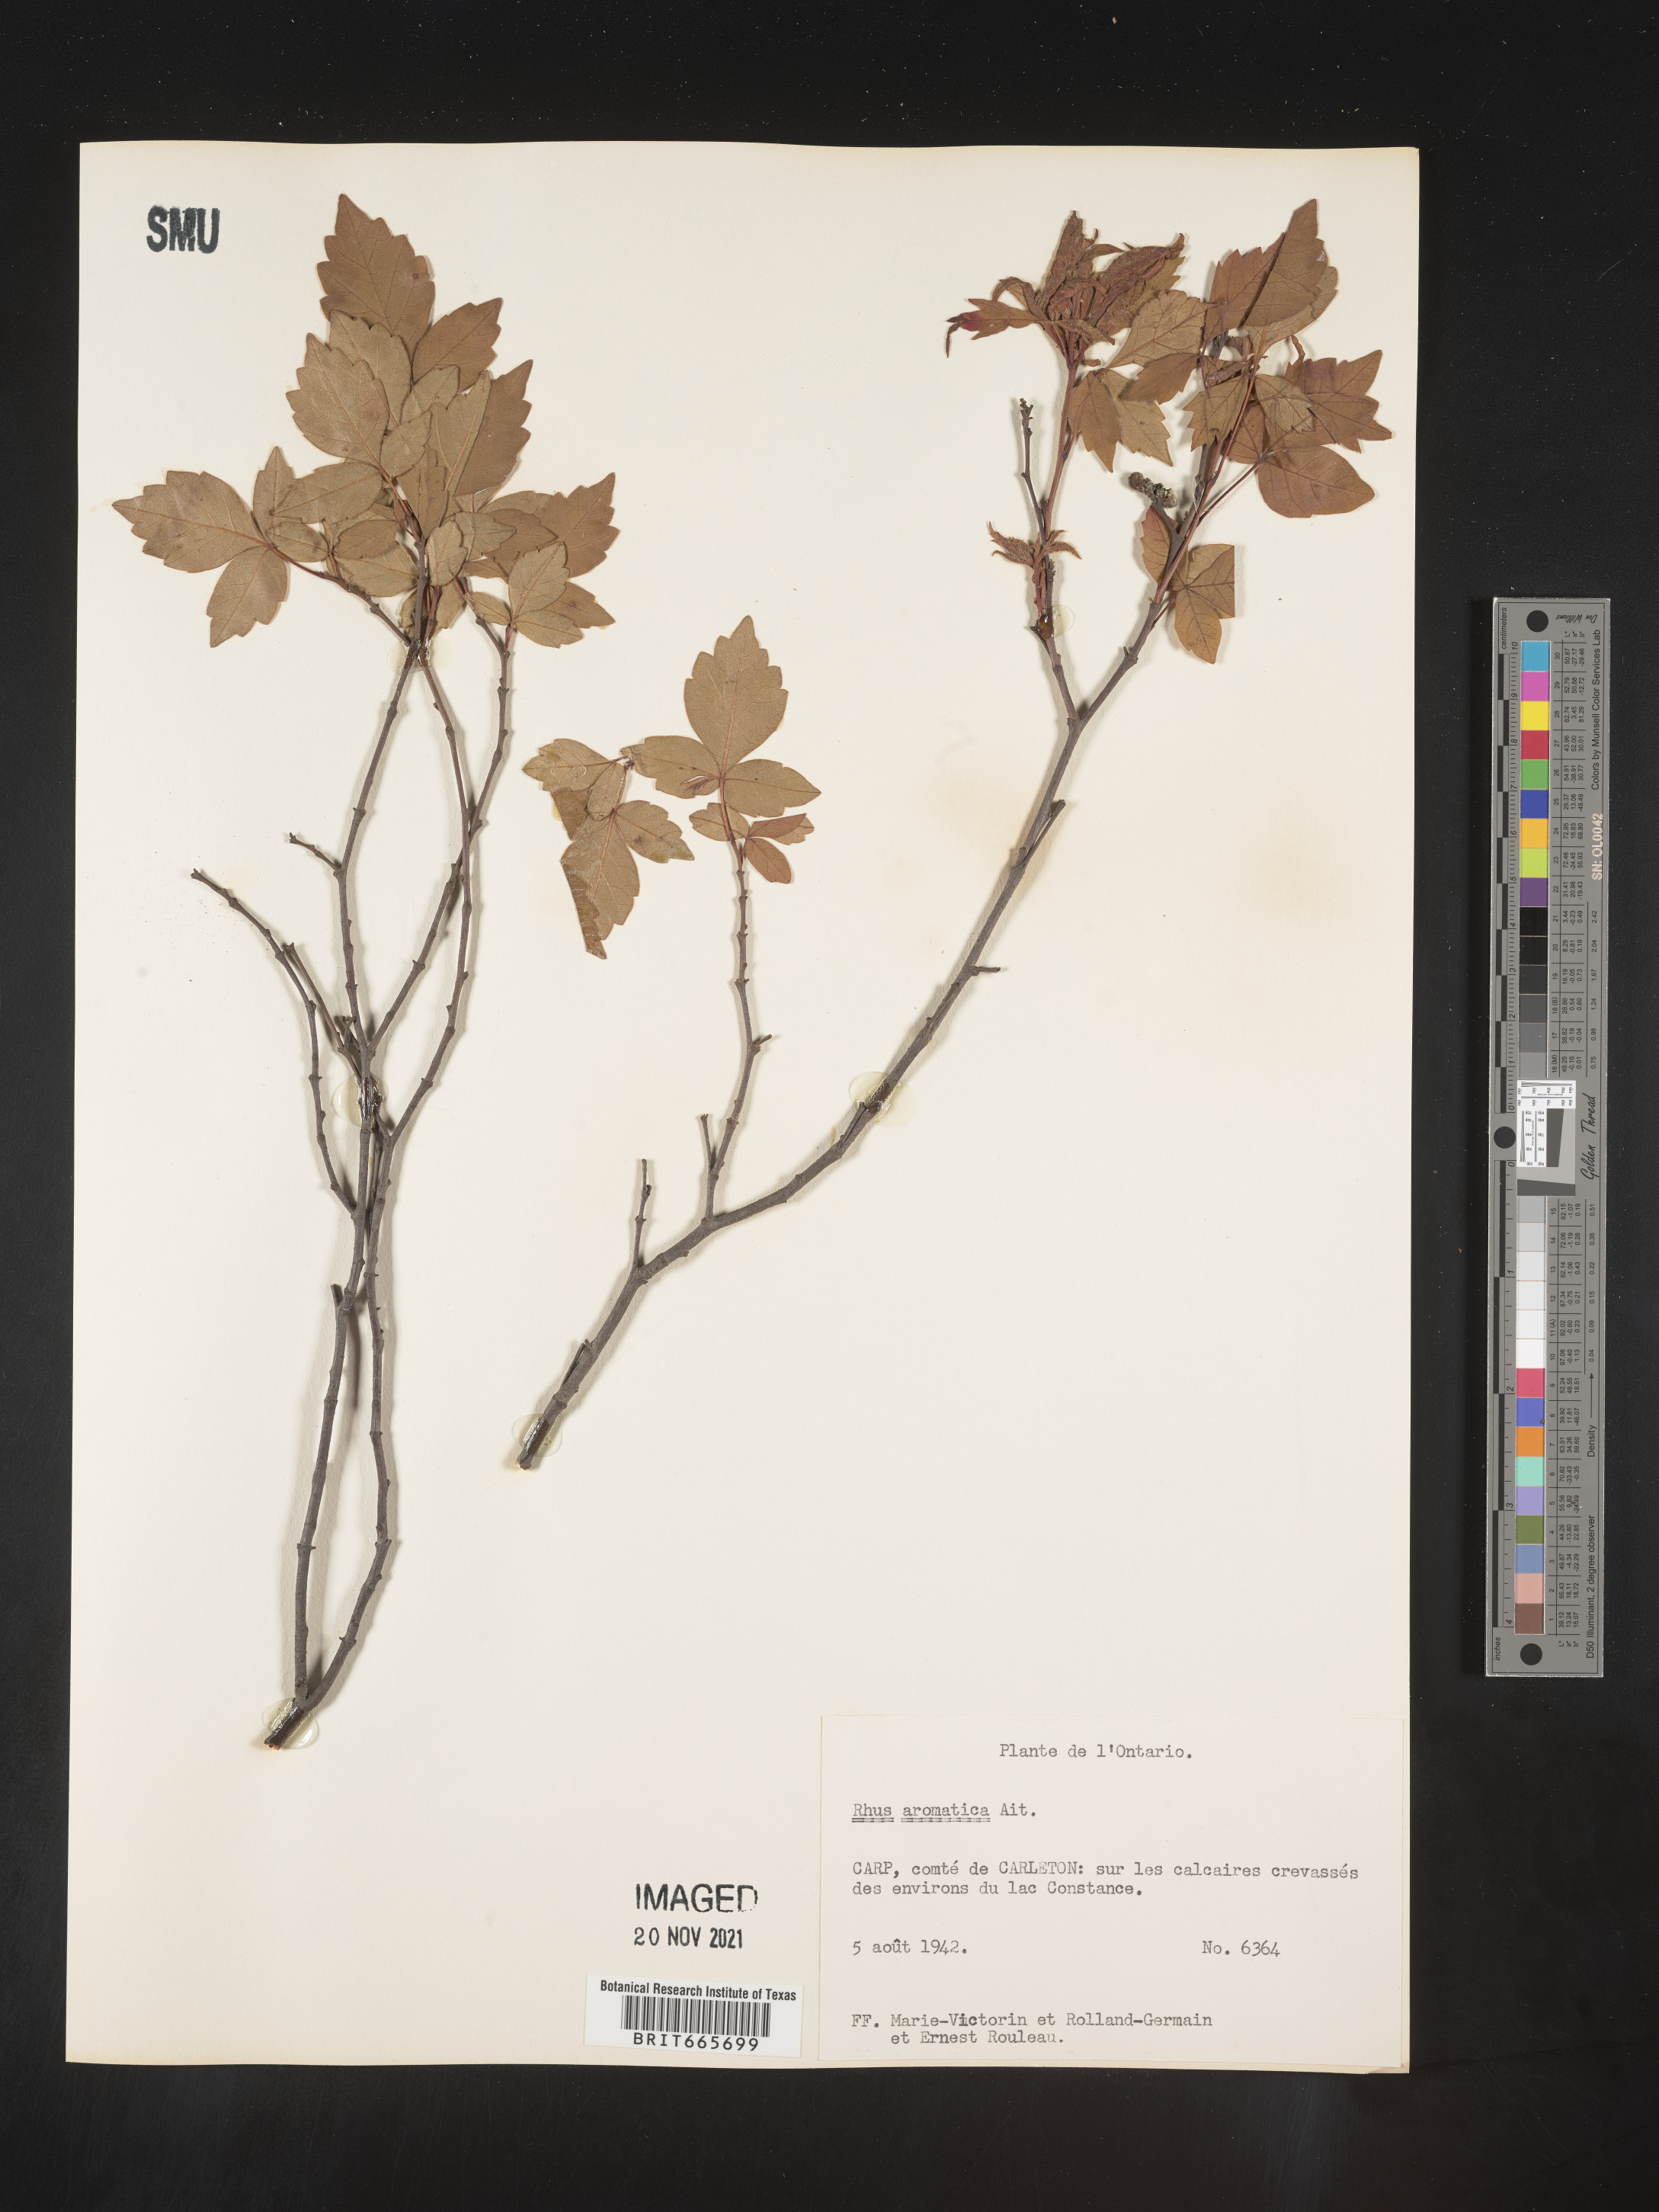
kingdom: Plantae
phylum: Tracheophyta
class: Magnoliopsida
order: Sapindales
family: Anacardiaceae
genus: Rhus
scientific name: Rhus aromatica
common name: Aromatic sumac
